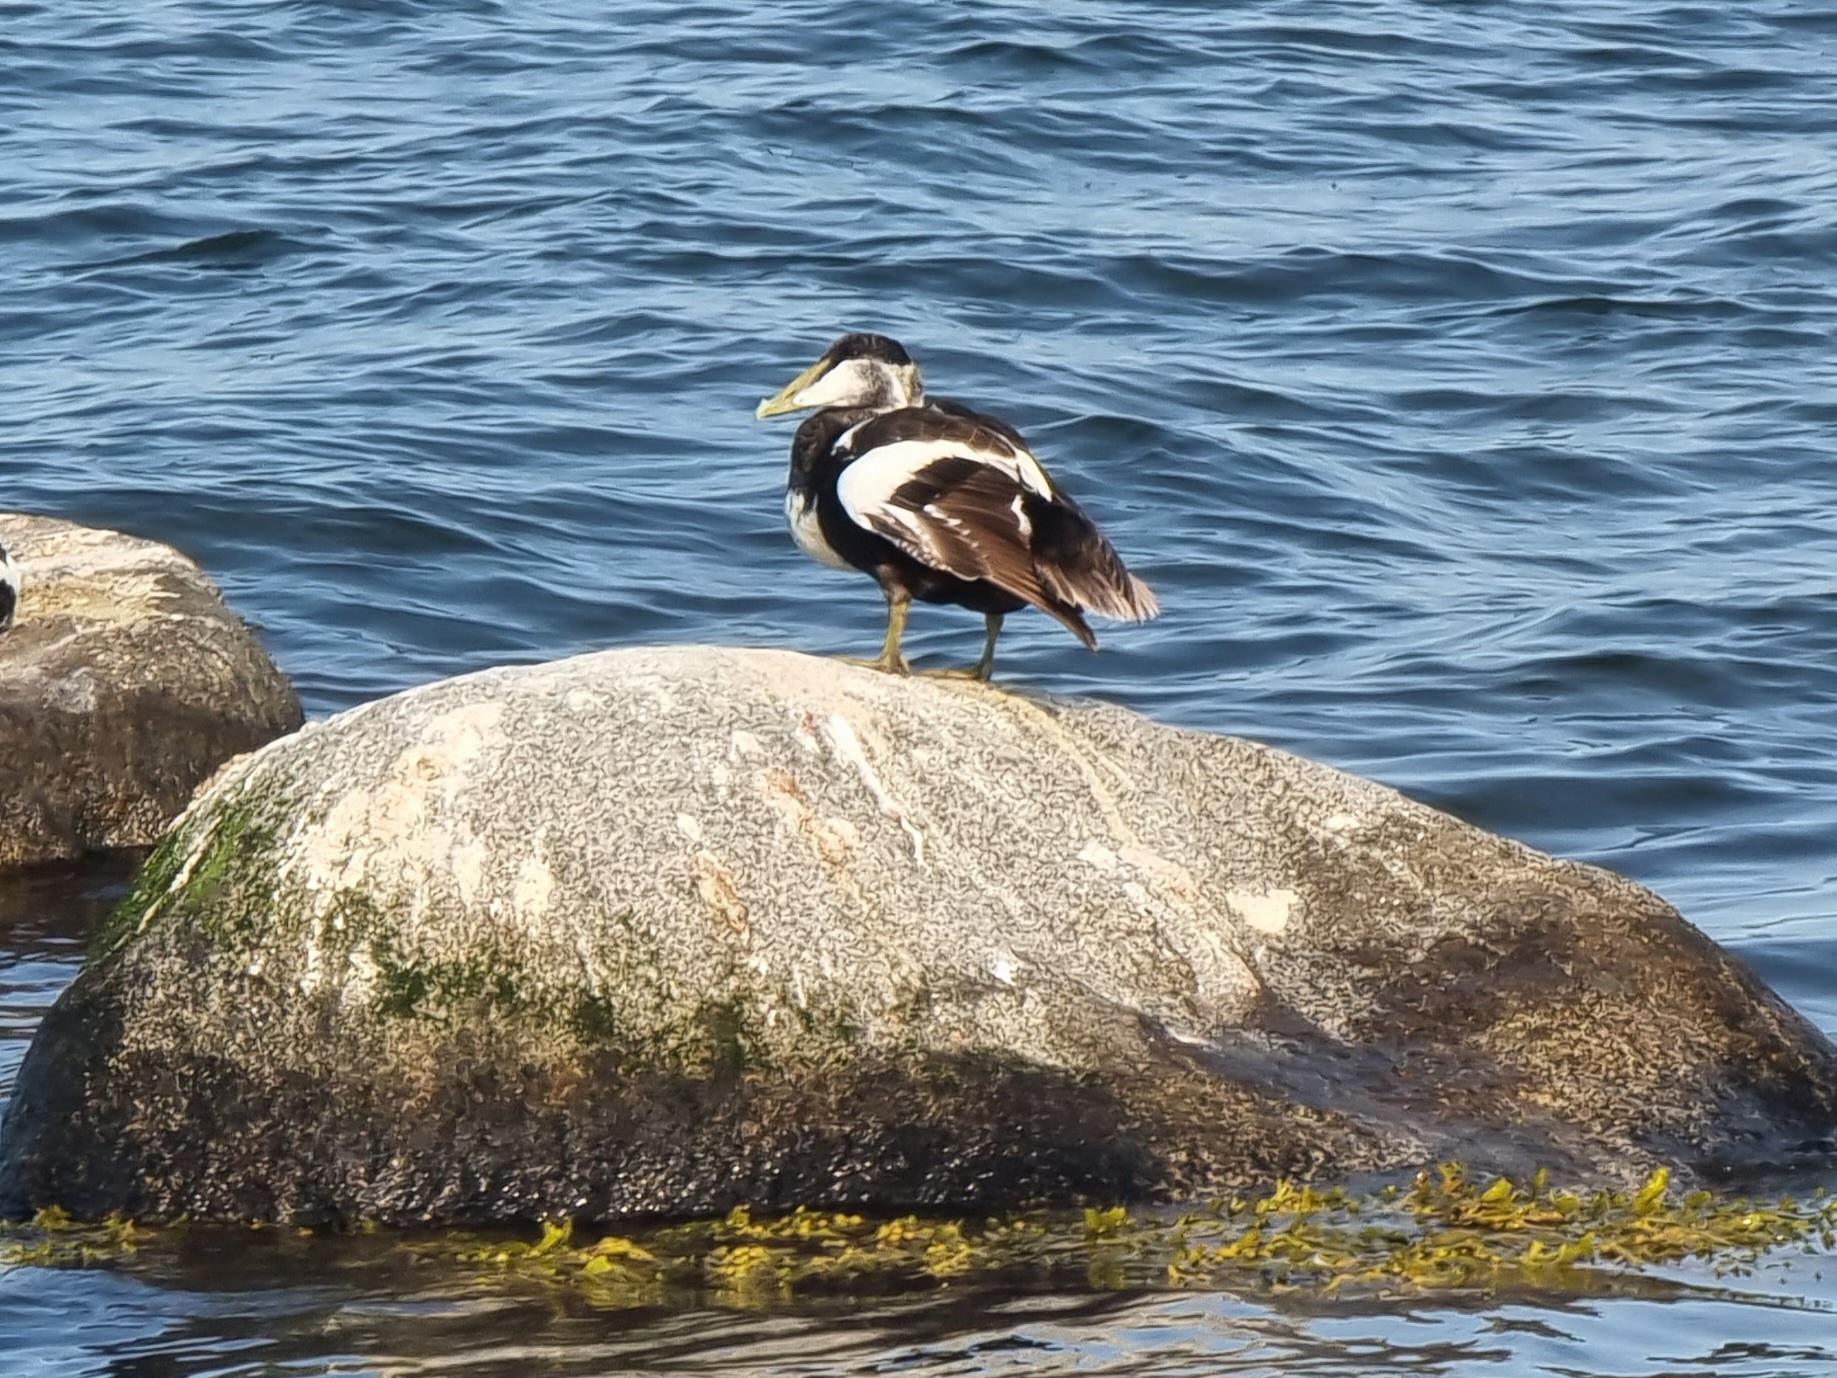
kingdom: Animalia
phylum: Chordata
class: Aves
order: Anseriformes
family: Anatidae
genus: Somateria
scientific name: Somateria mollissima
